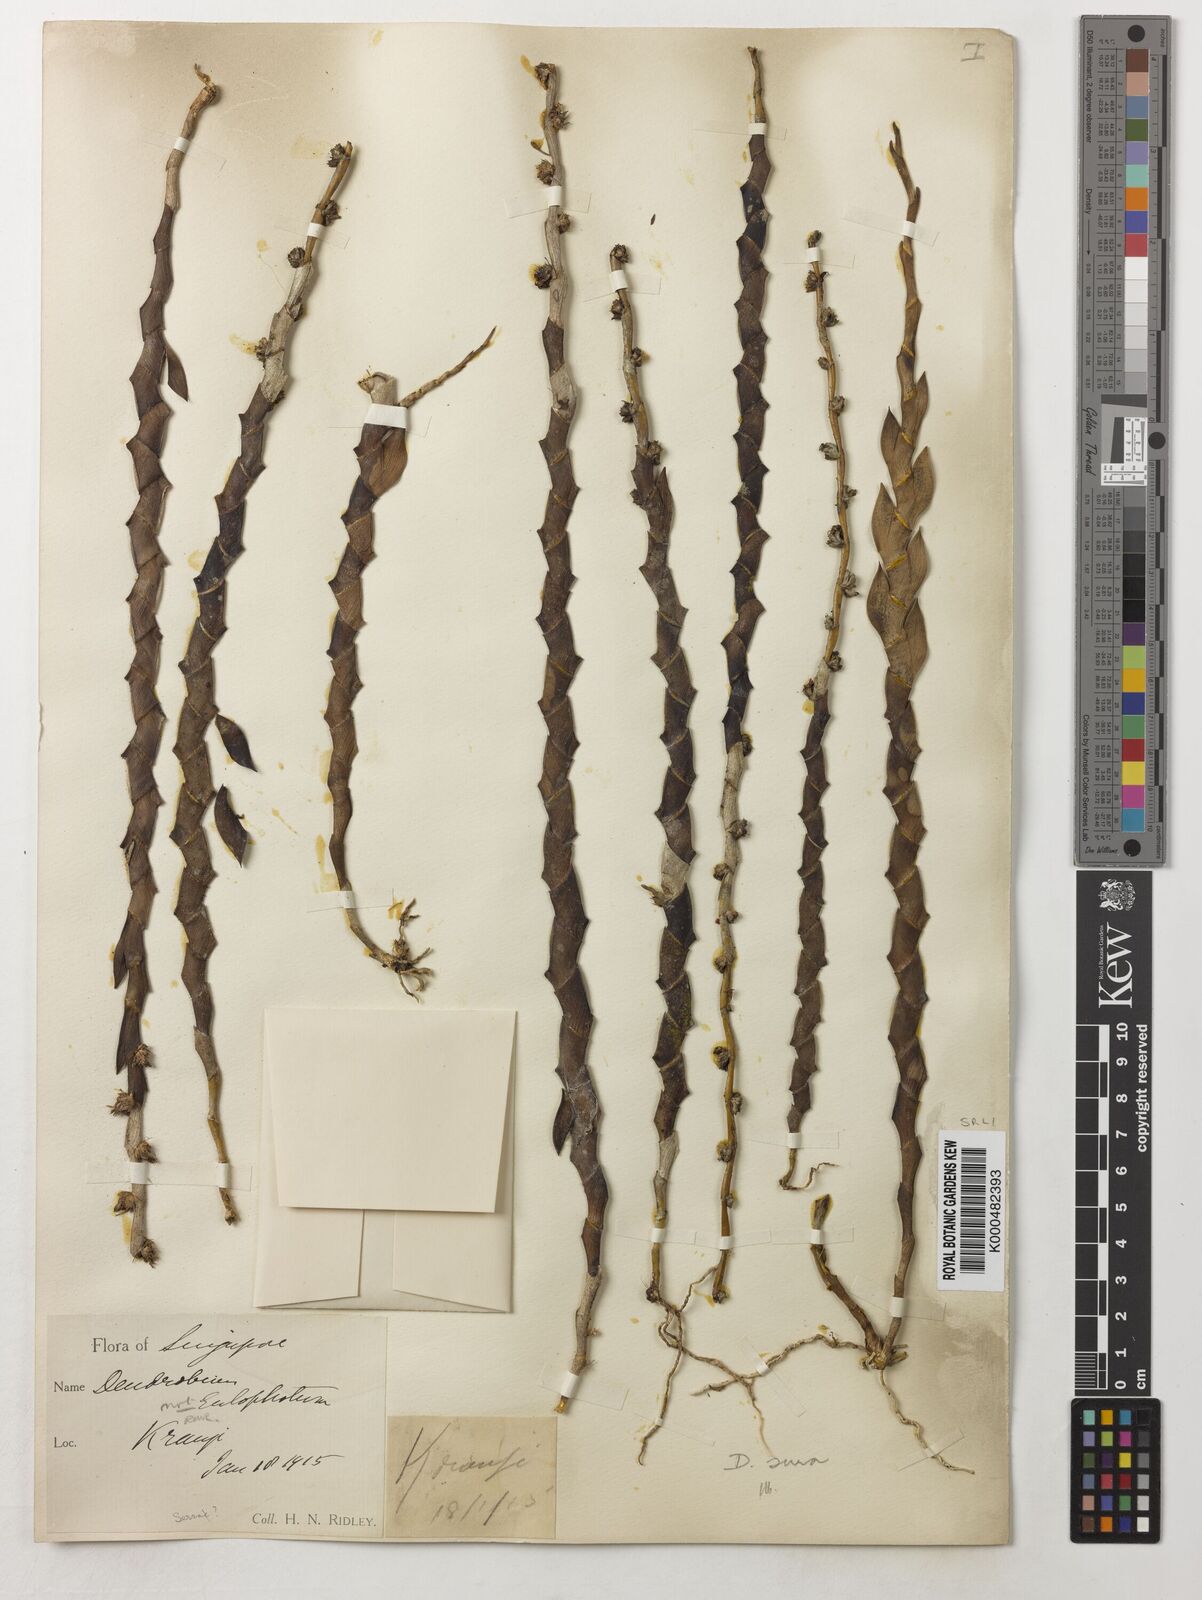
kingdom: Plantae
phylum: Tracheophyta
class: Liliopsida
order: Asparagales
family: Orchidaceae
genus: Dendrobium
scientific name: Dendrobium aloifolium
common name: Aloe-like dendrobium
